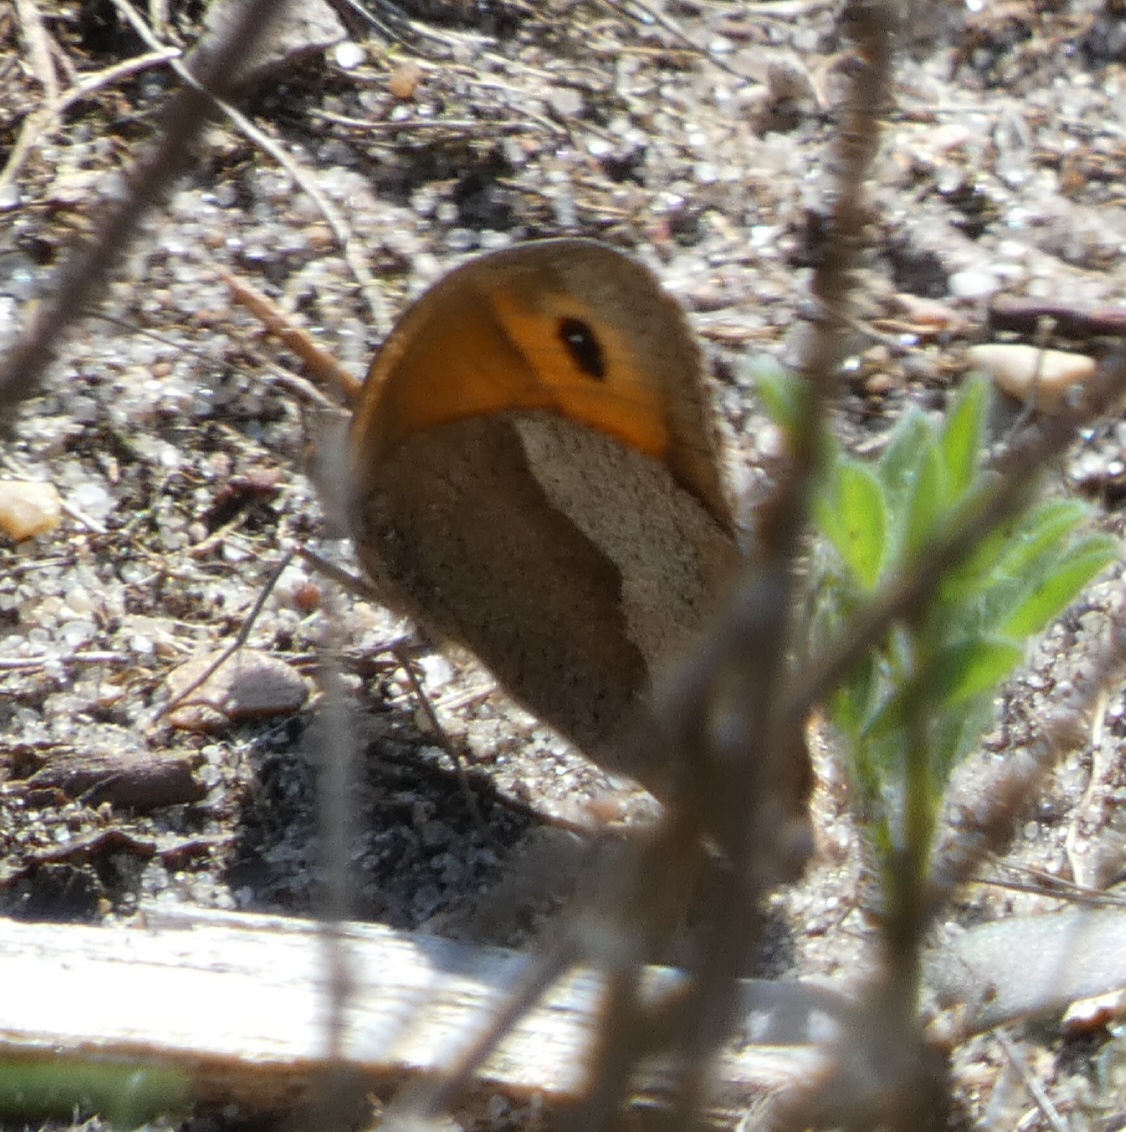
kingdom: Animalia
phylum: Arthropoda
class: Insecta
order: Lepidoptera
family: Nymphalidae
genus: Maniola
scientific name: Maniola jurtina
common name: Græsrandøje
